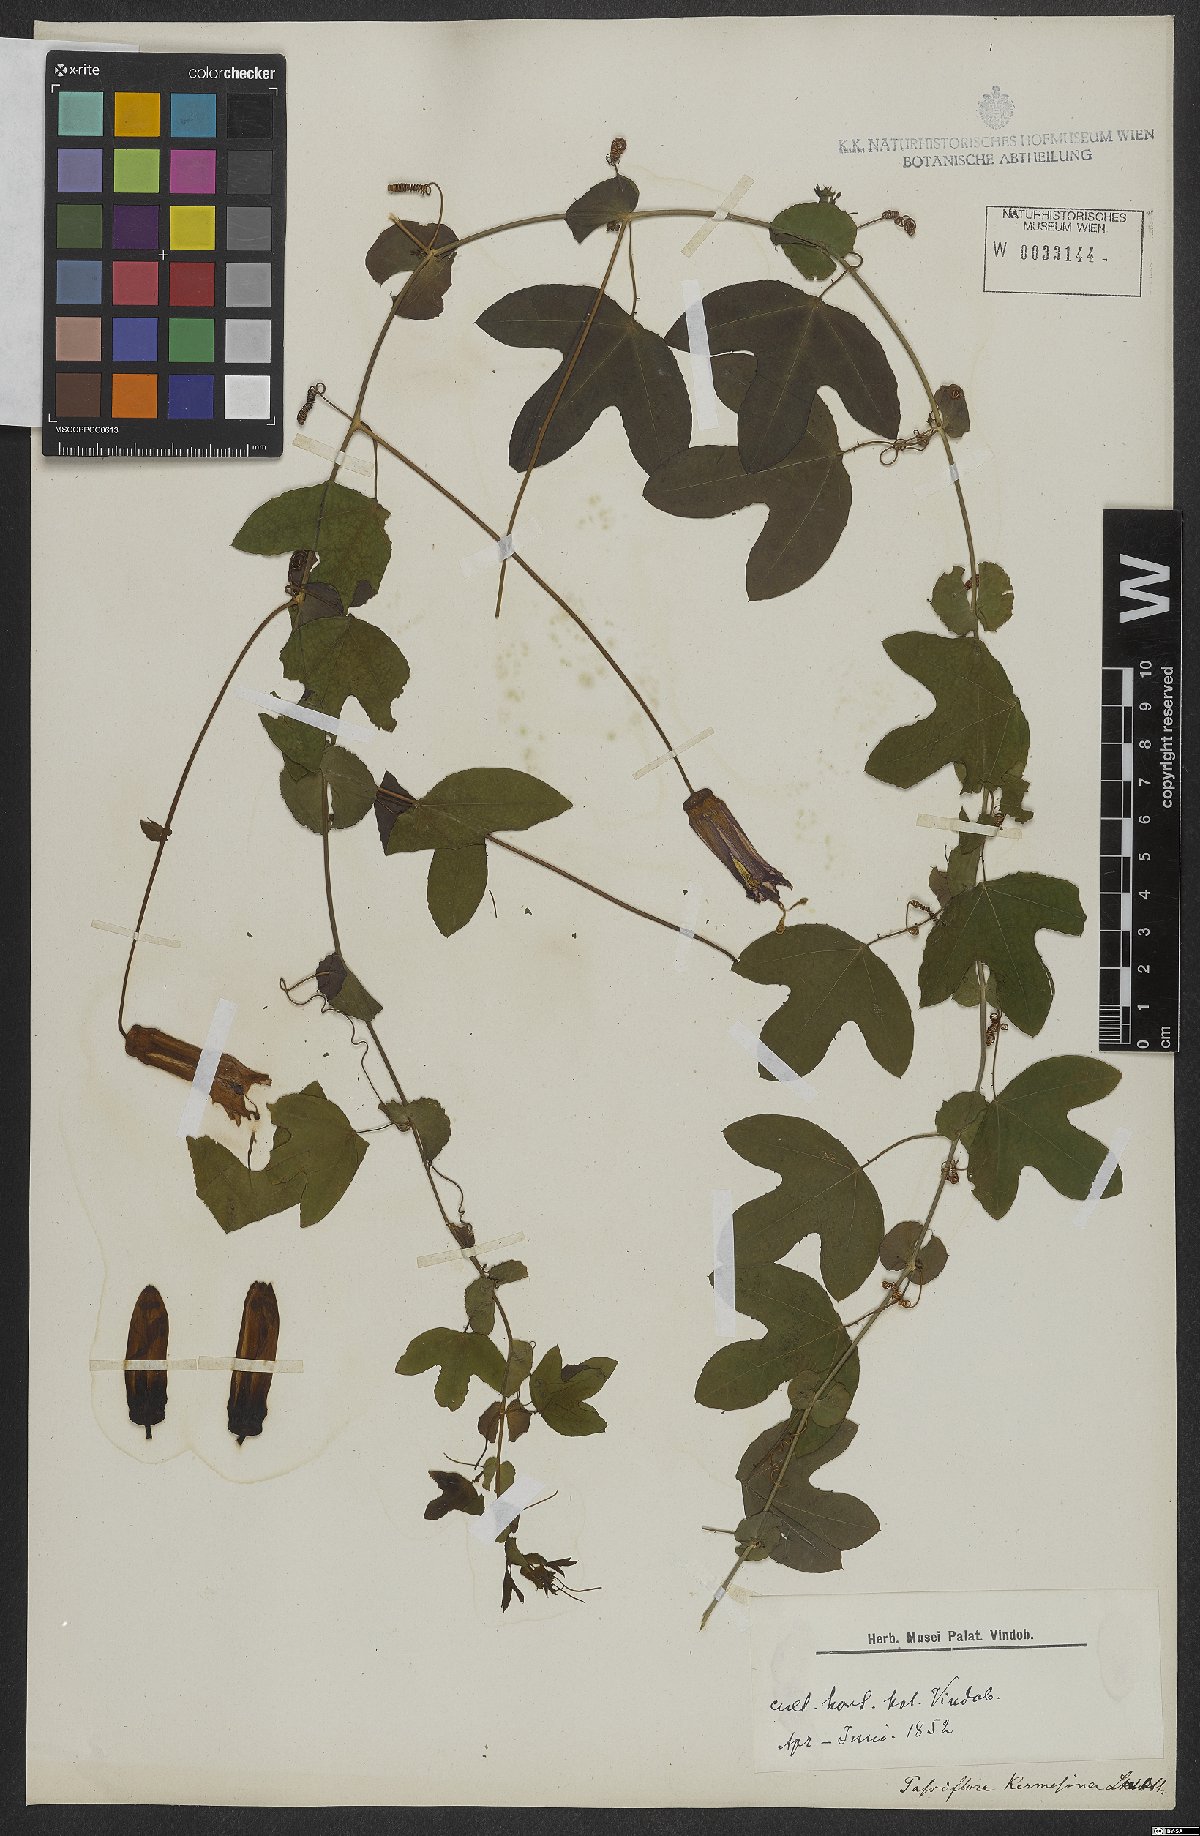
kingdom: Plantae
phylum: Tracheophyta
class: Magnoliopsida
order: Malpighiales
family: Passifloraceae
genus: Passiflora
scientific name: Passiflora kermesina
